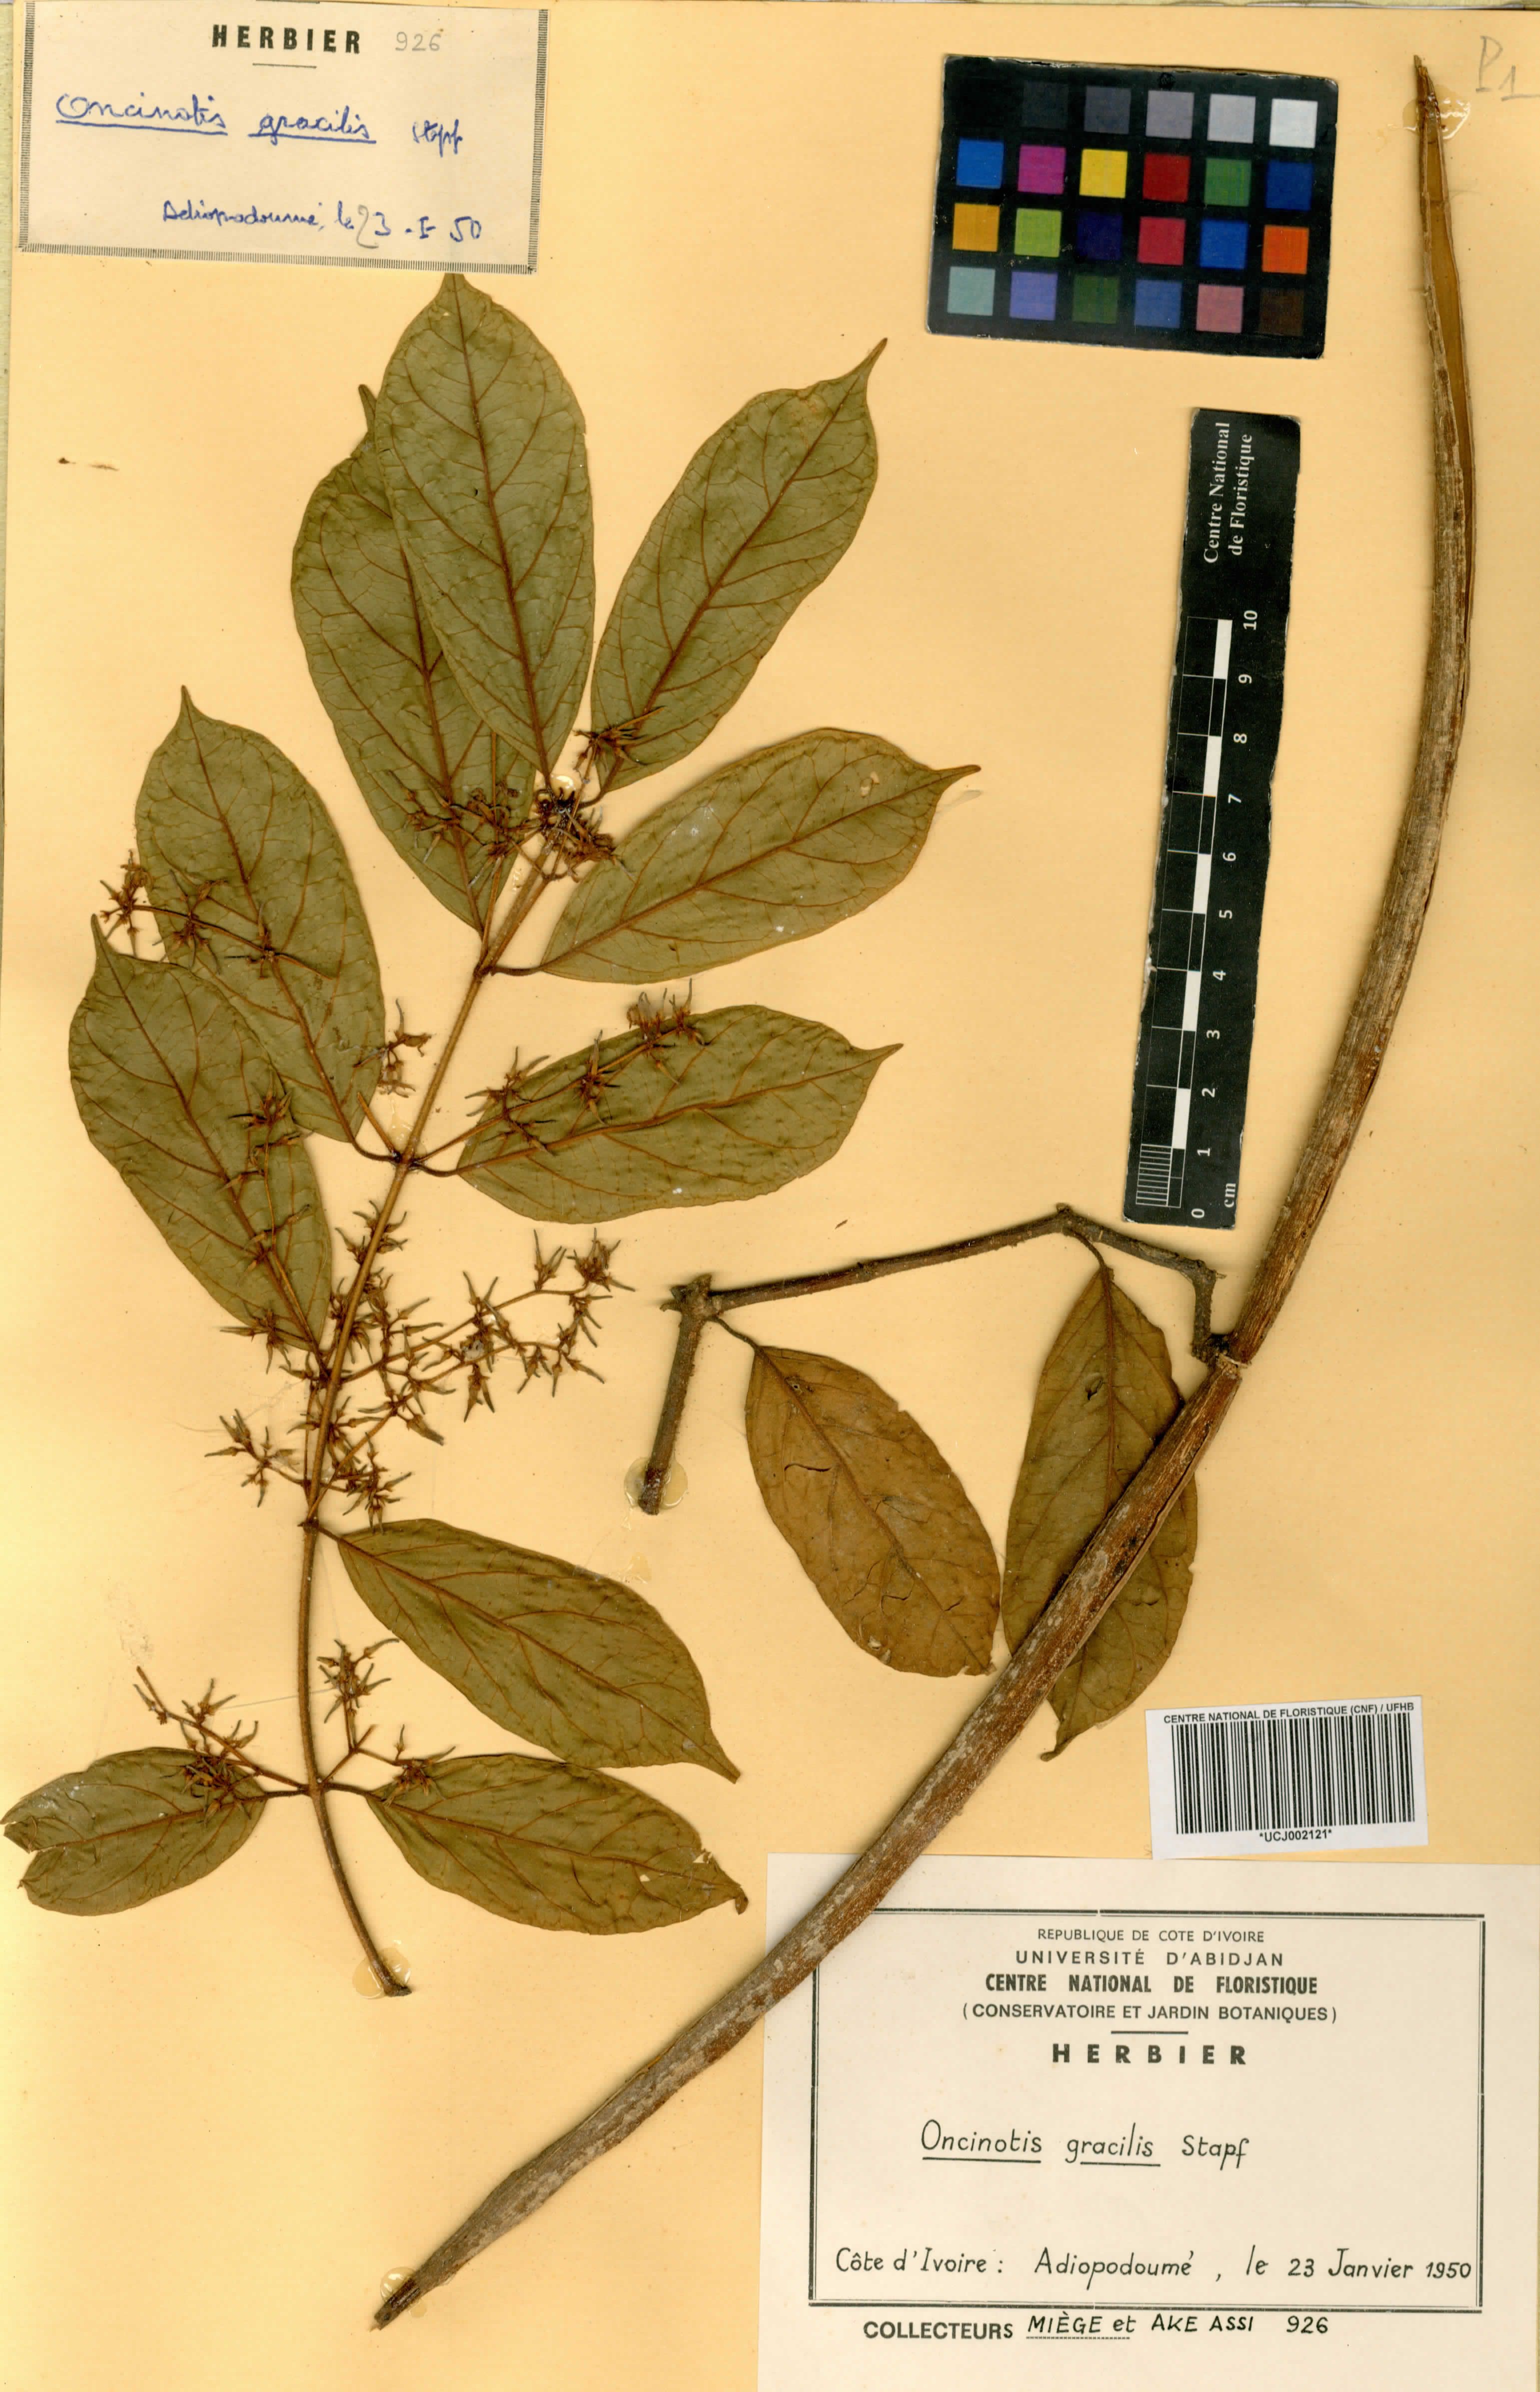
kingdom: Plantae
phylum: Tracheophyta
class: Magnoliopsida
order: Gentianales
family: Apocynaceae
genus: Oncinotis
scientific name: Oncinotis gracilis
